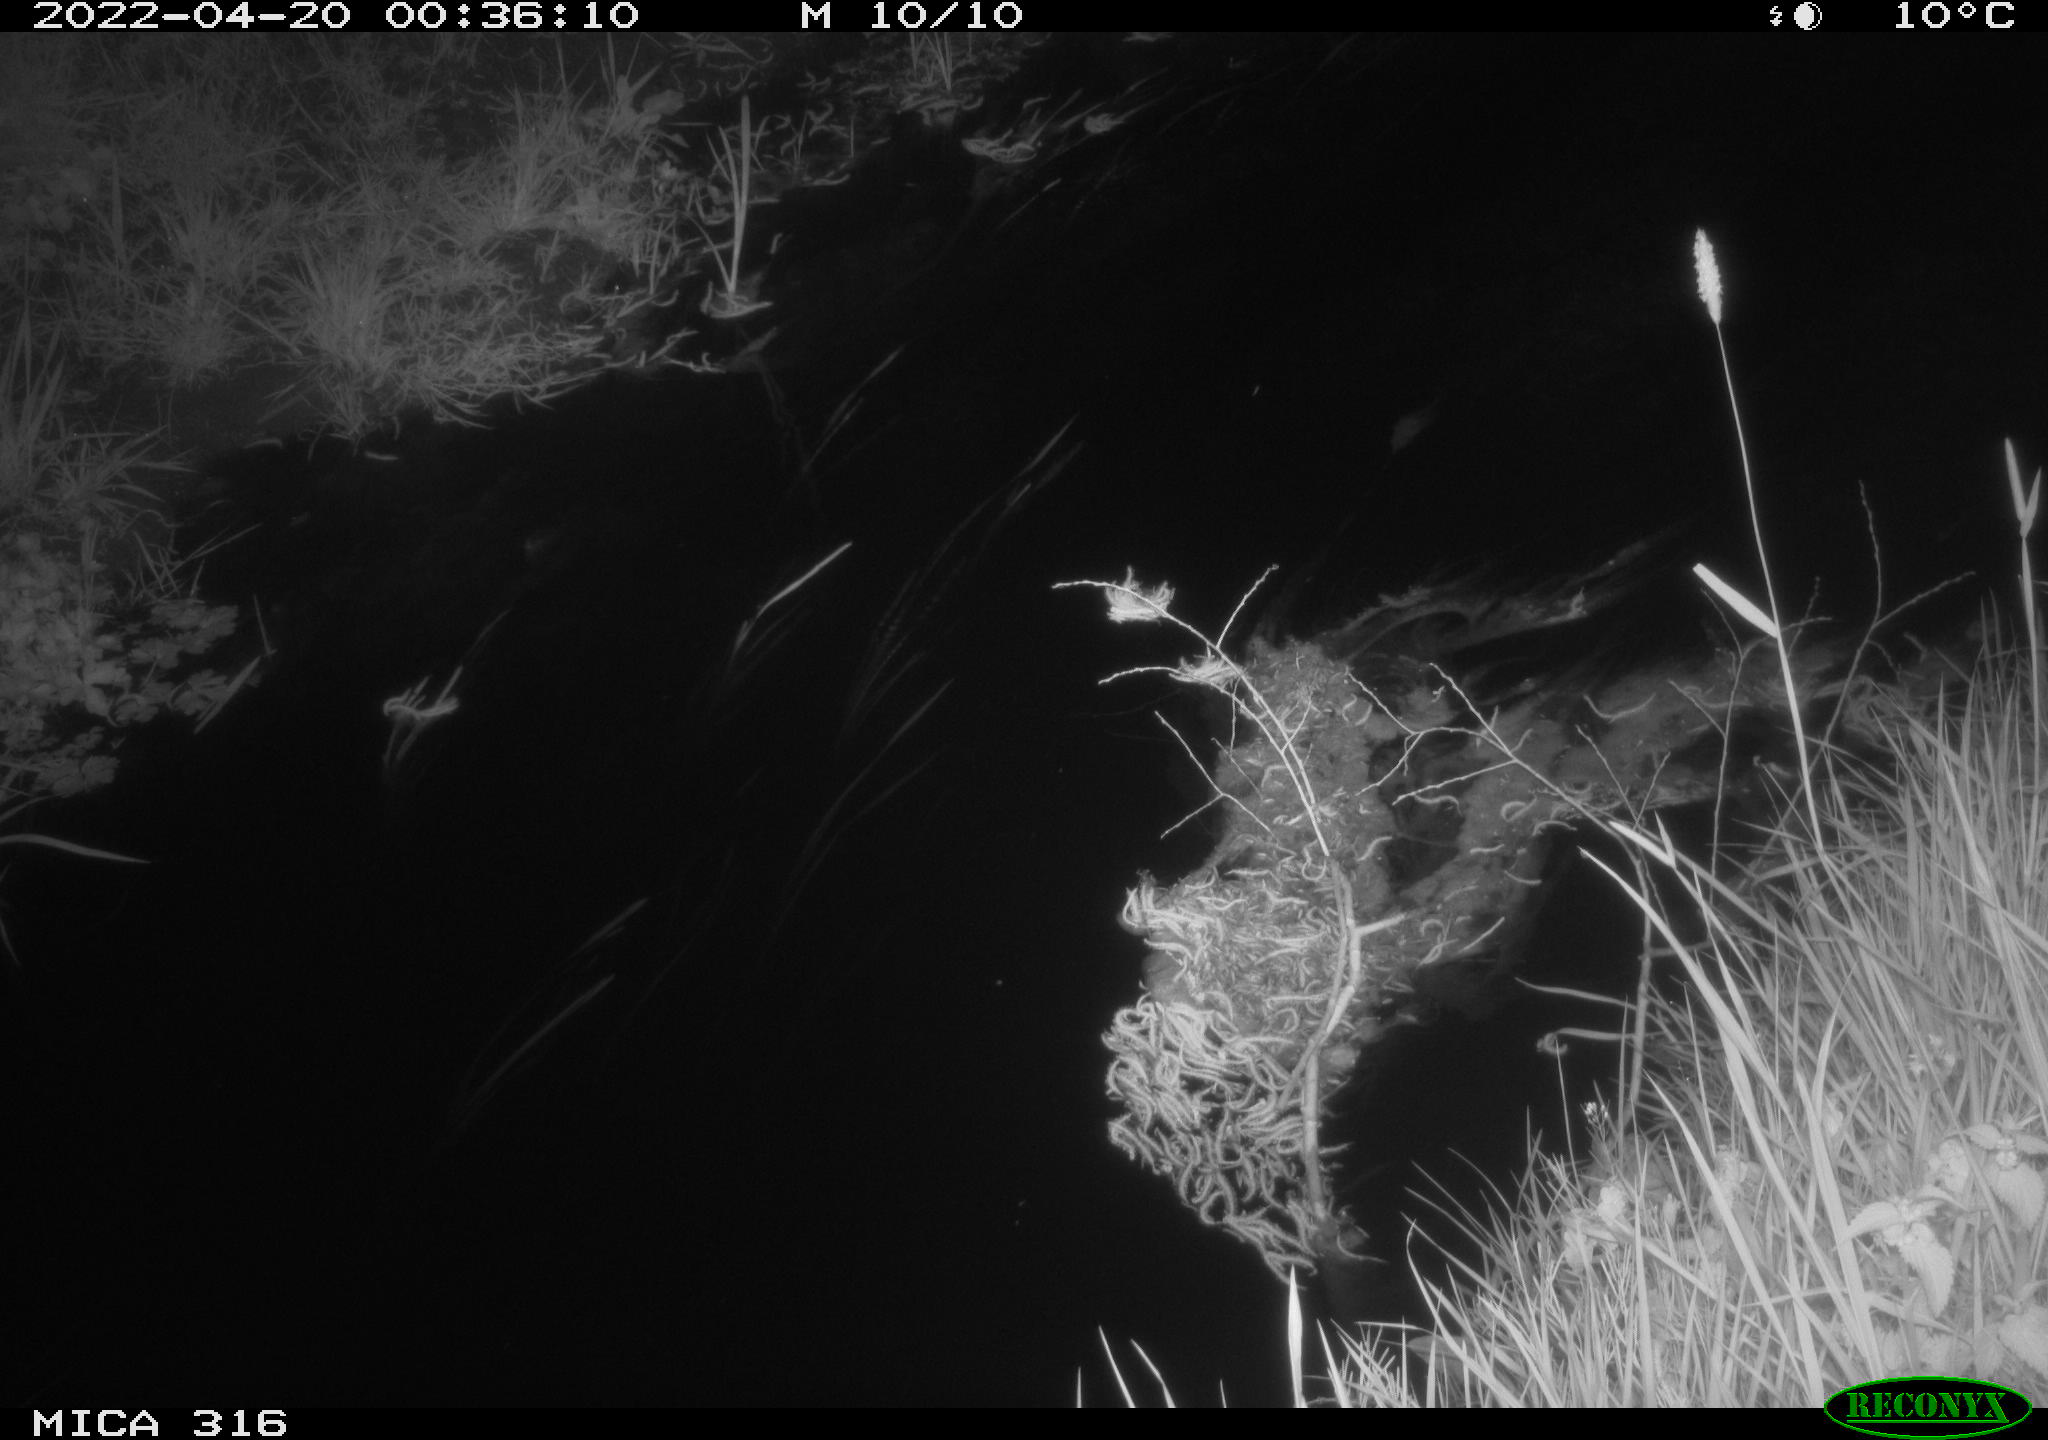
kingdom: Animalia
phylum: Chordata
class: Aves
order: Anseriformes
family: Anatidae
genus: Anas
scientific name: Anas platyrhynchos
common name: Mallard
